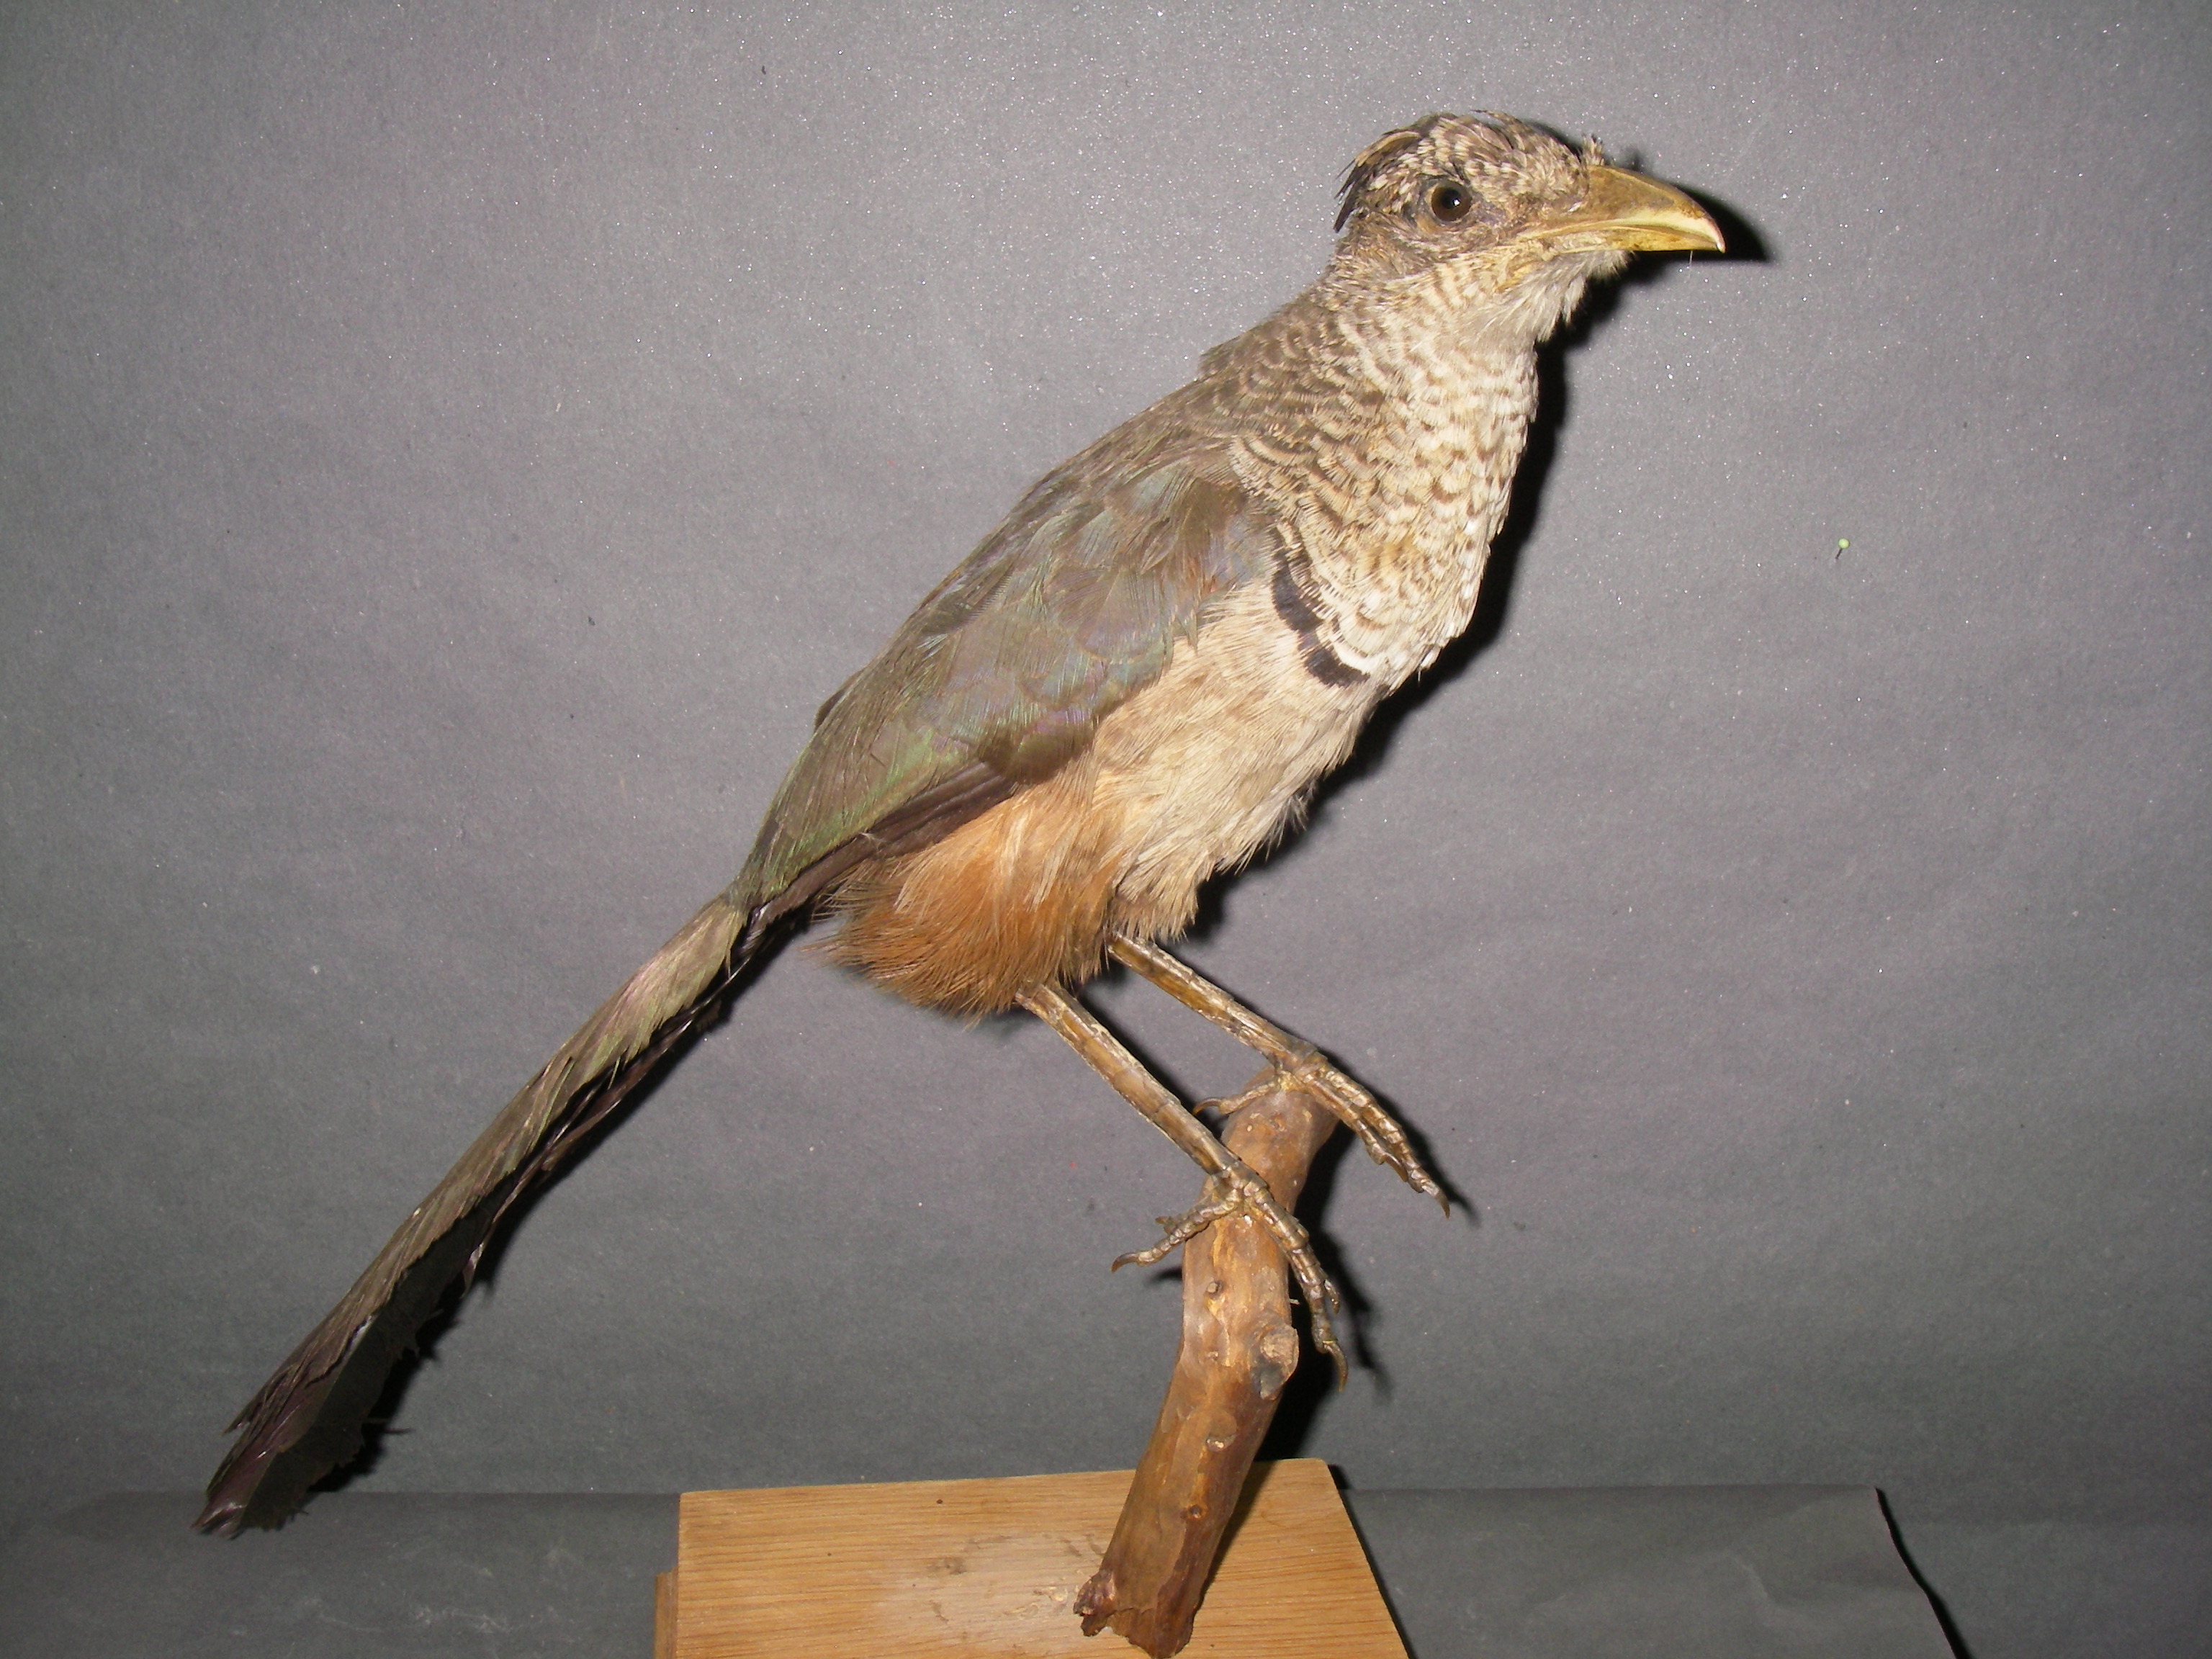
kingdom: Animalia
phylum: Chordata
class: Aves
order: Cuculiformes
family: Cuculidae
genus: Neomorphus
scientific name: Neomorphus geoffroyi
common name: Rufous-vented ground-cuckoo
